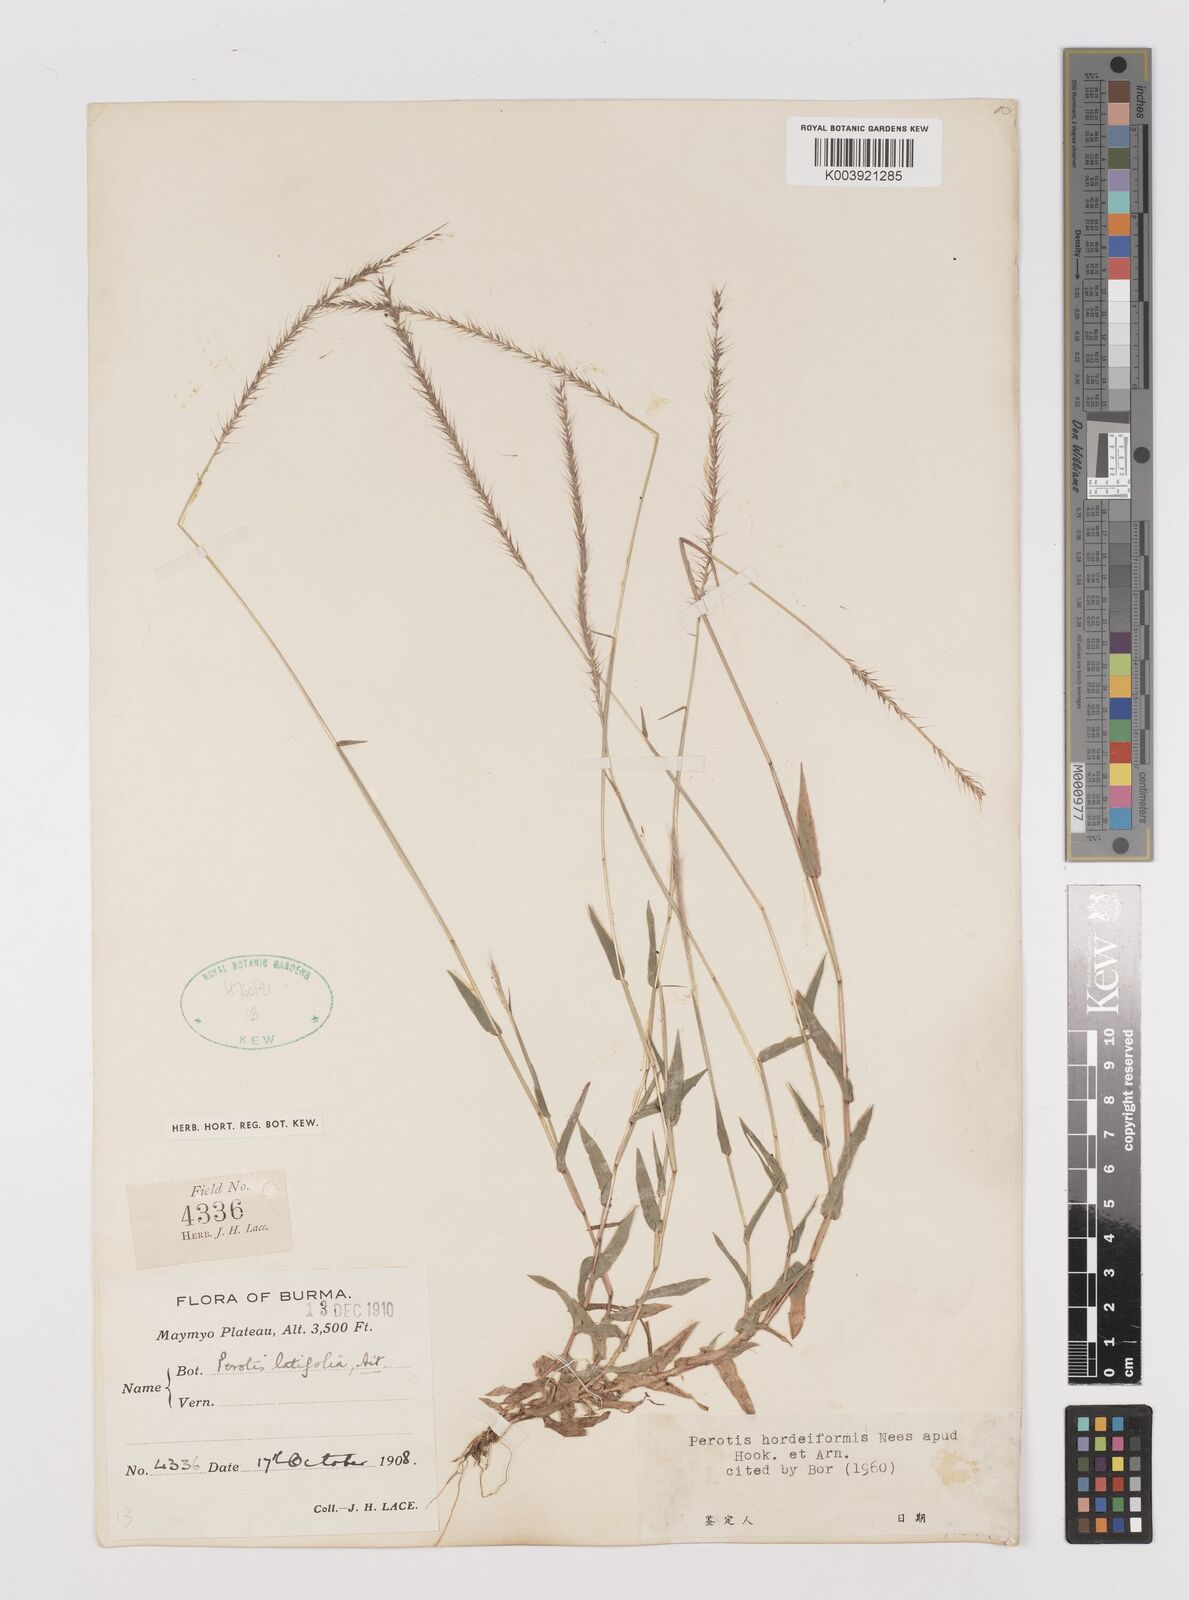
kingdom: Plantae
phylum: Tracheophyta
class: Liliopsida
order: Poales
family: Poaceae
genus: Perotis
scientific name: Perotis hordeiformis
